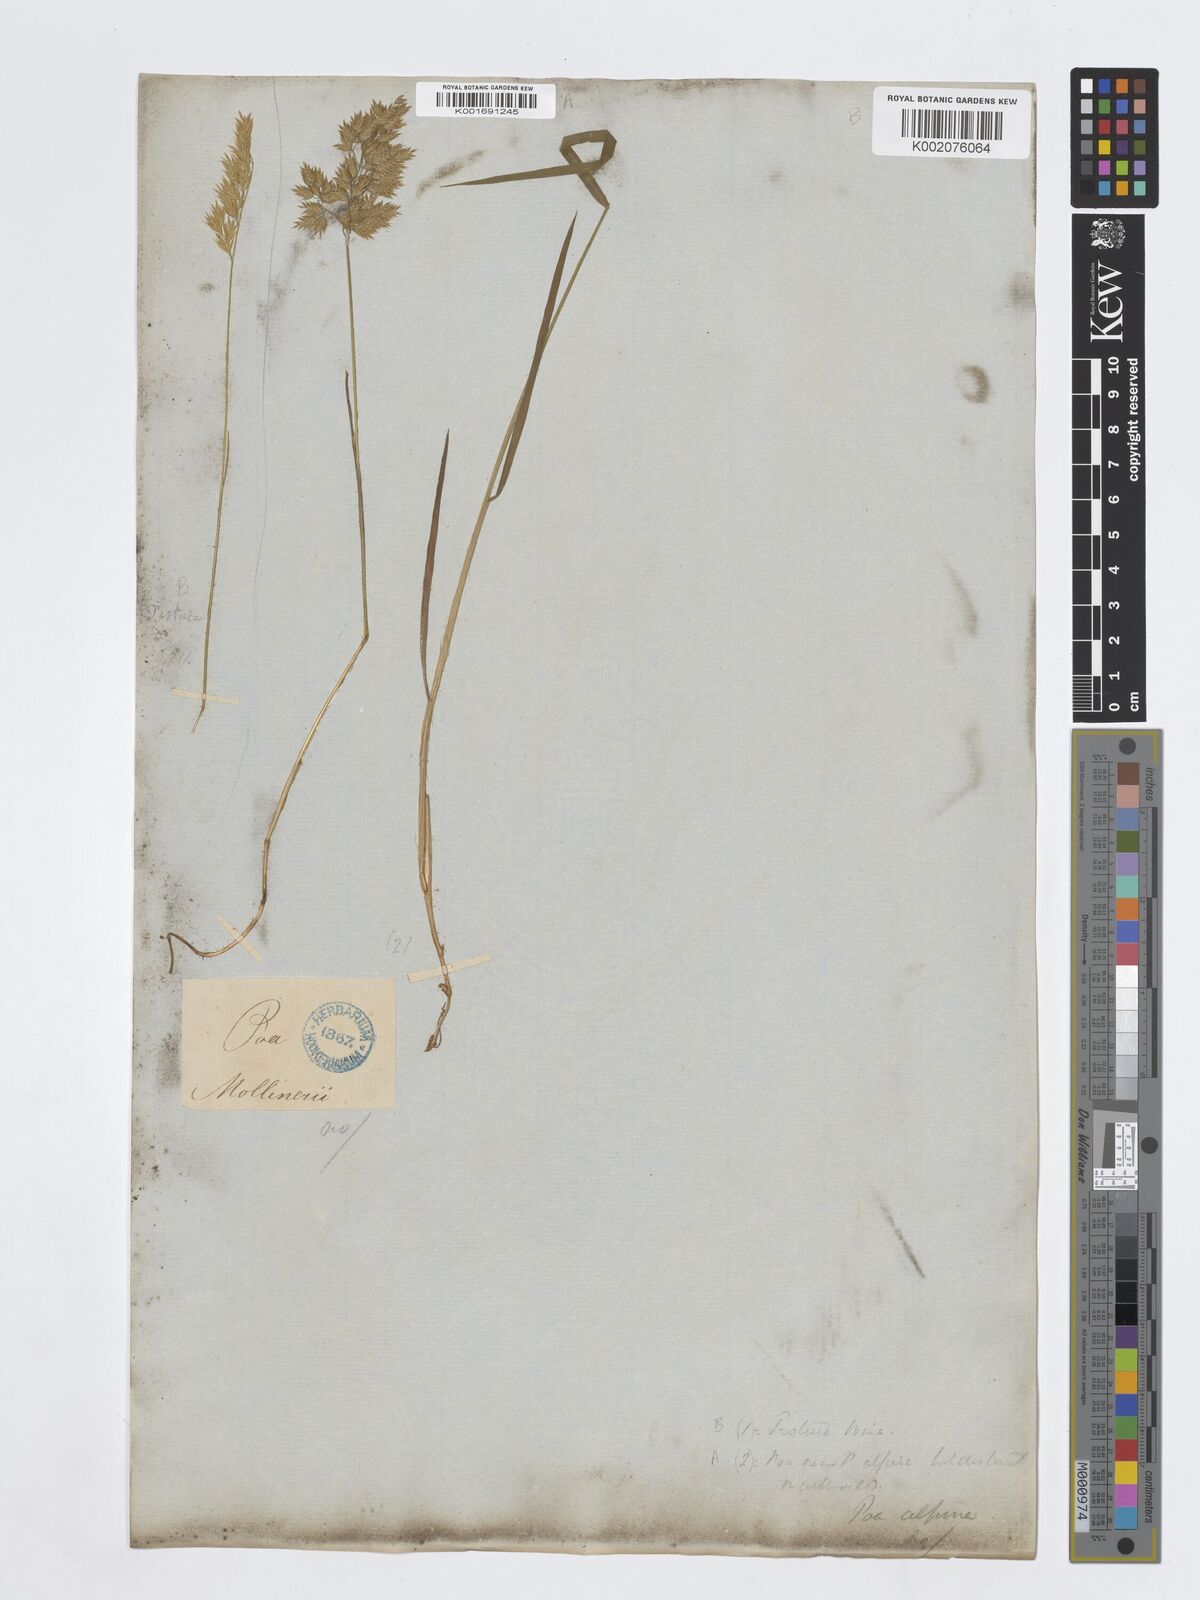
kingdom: Plantae
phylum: Tracheophyta
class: Liliopsida
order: Poales
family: Poaceae
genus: Poa
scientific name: Poa alpina
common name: Alpine bluegrass
